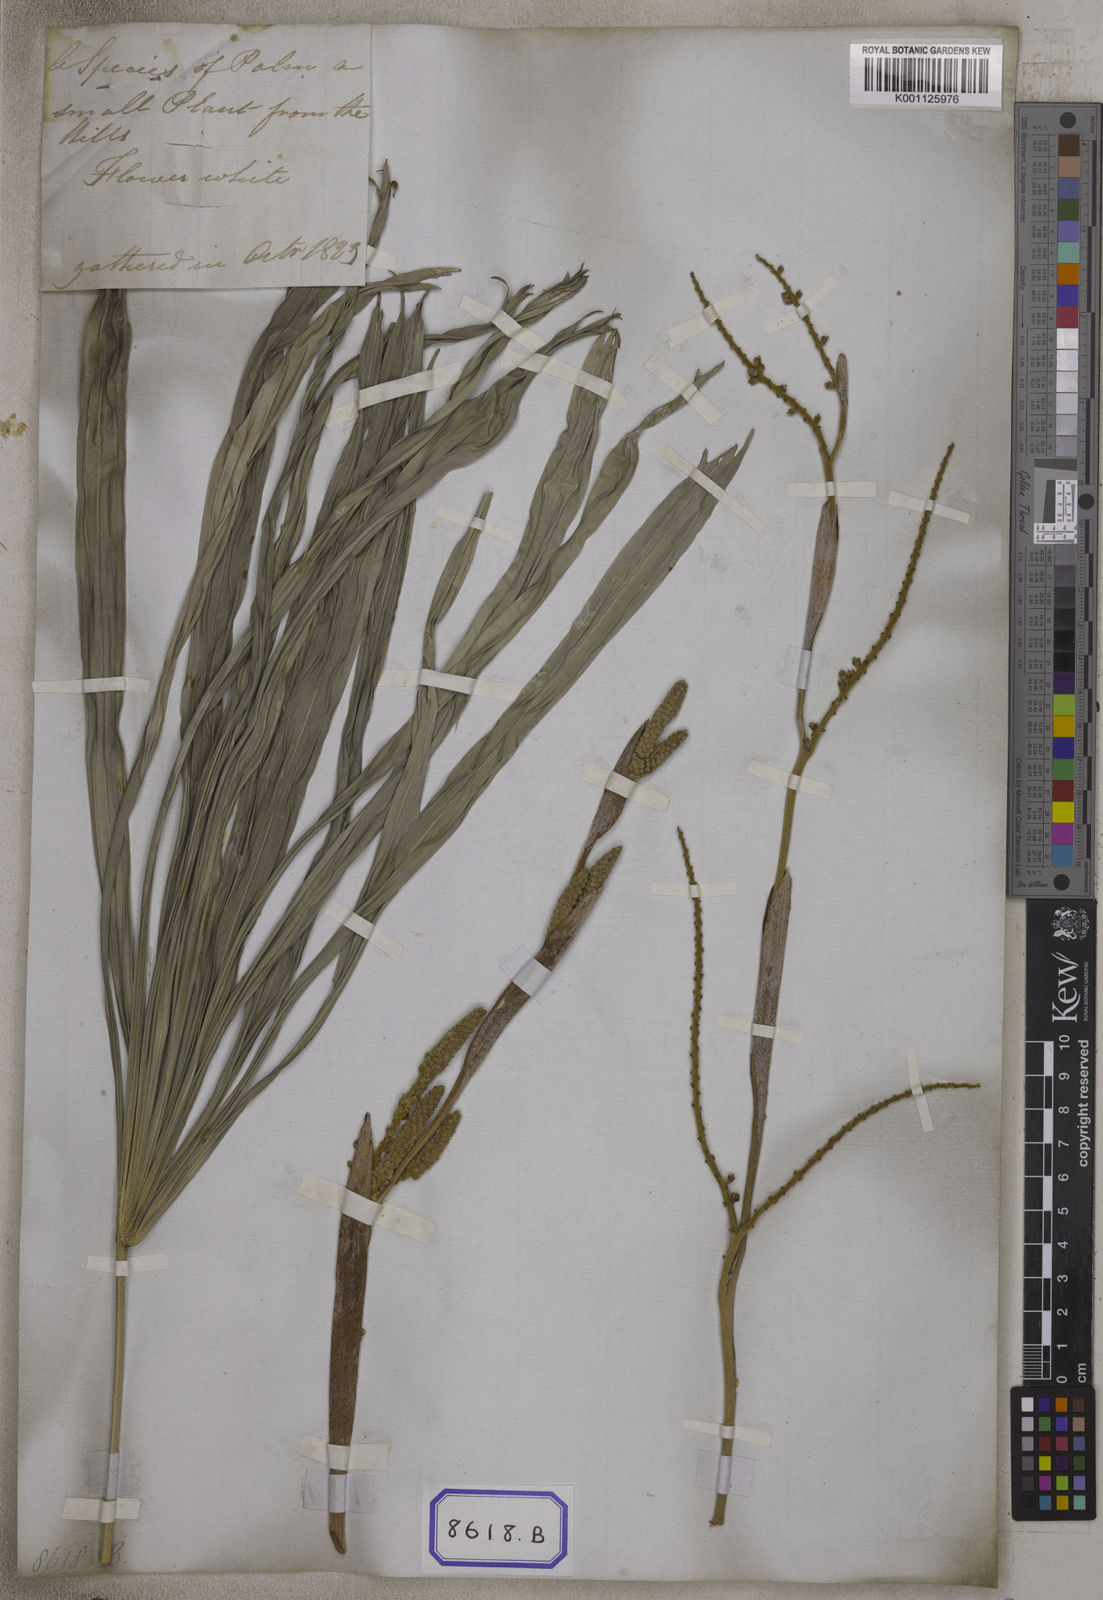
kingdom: Plantae
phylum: Tracheophyta
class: Liliopsida
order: Arecales
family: Arecaceae
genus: Licuala
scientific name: Licuala acutifida
